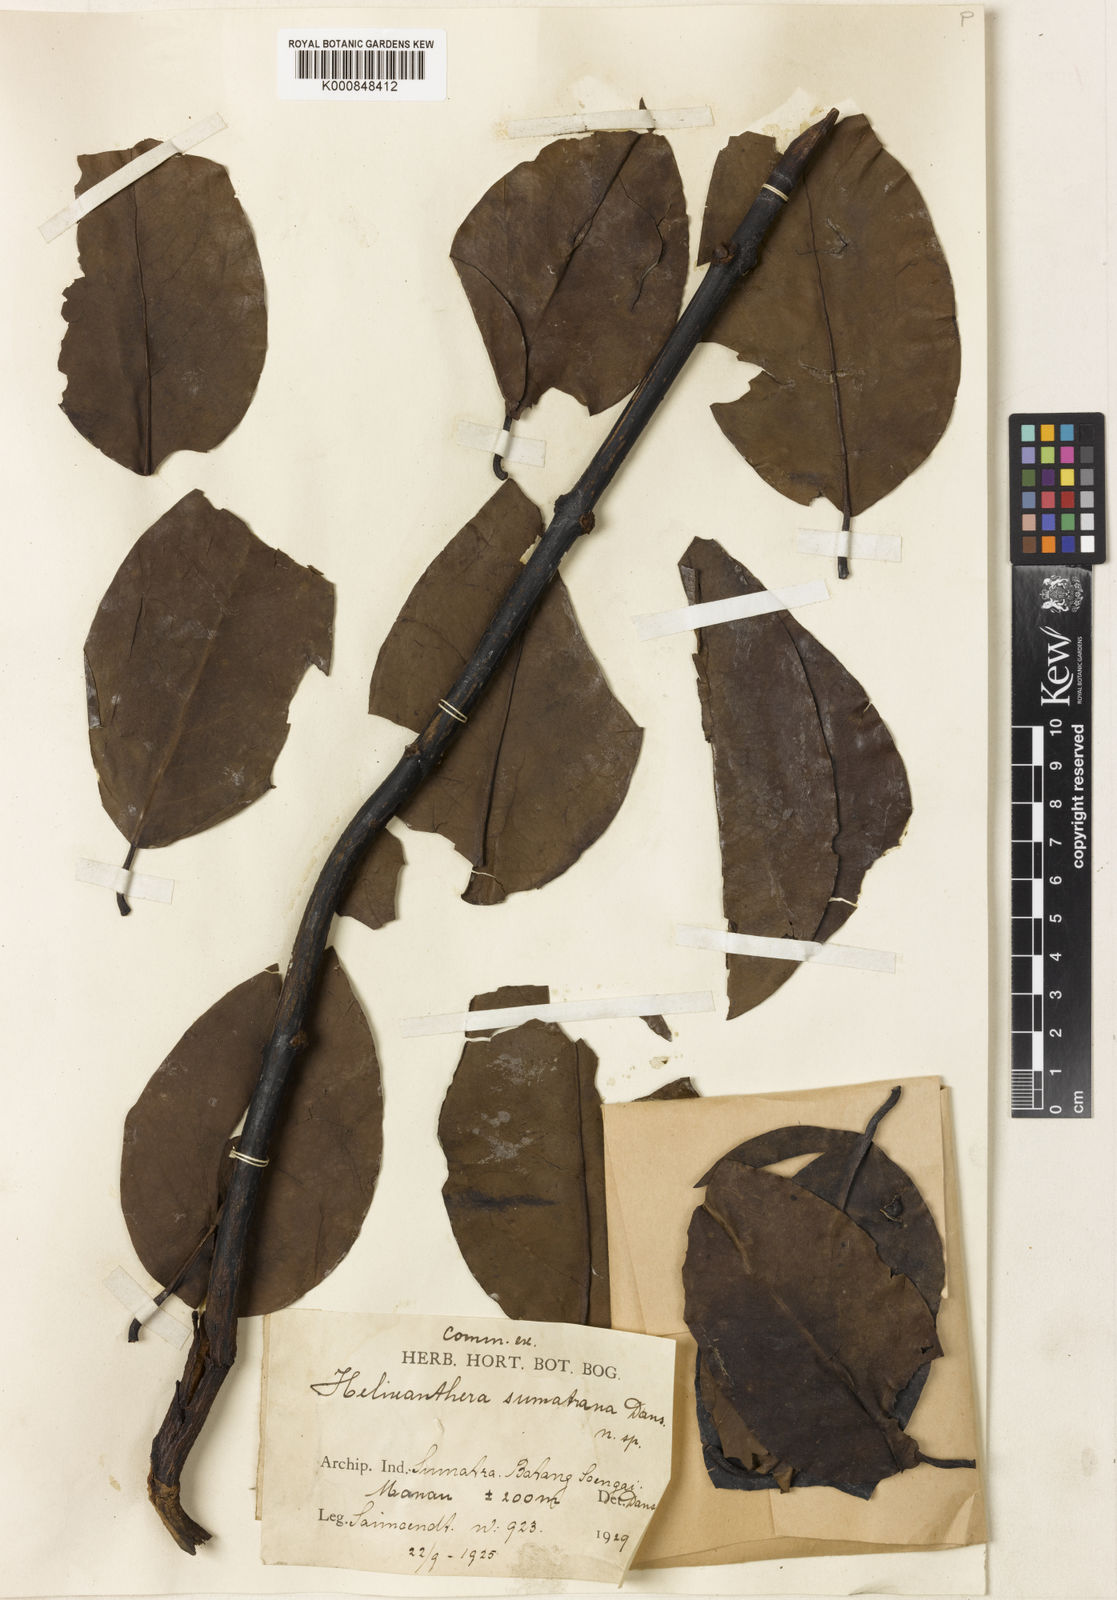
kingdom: Plantae
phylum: Tracheophyta
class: Magnoliopsida
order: Santalales
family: Loranthaceae
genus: Helixanthera
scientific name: Helixanthera parasitica
